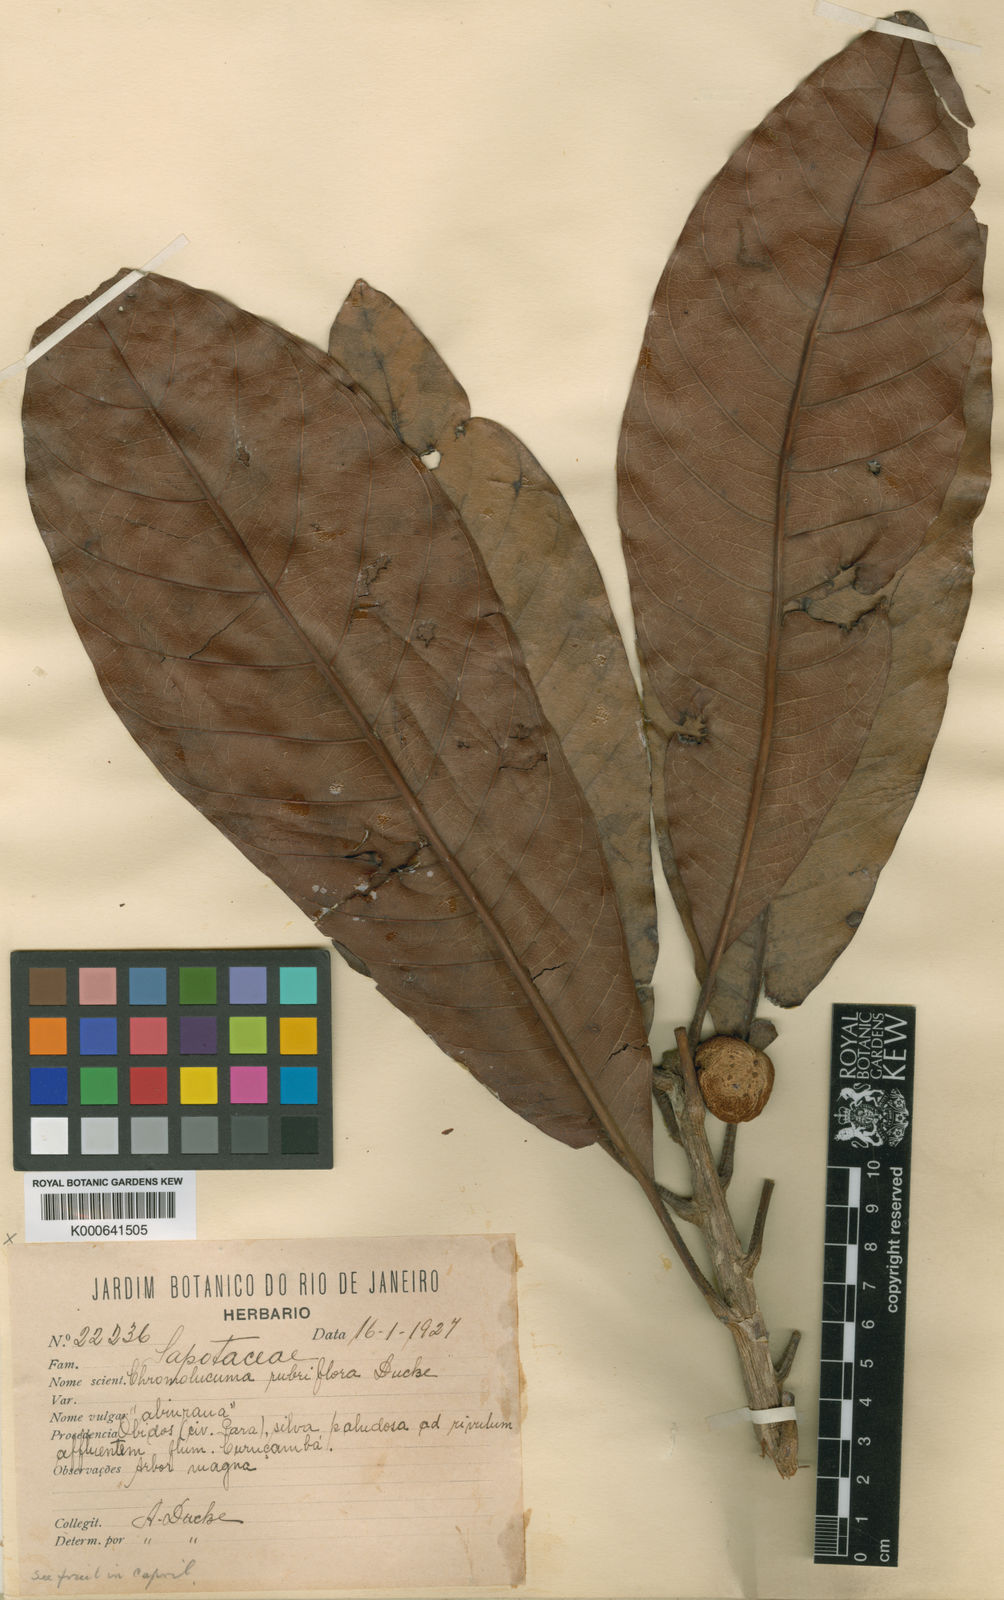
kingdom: Plantae
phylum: Tracheophyta
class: Magnoliopsida
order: Ericales
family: Sapotaceae
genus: Chromolucuma
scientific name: Chromolucuma rubriflora
